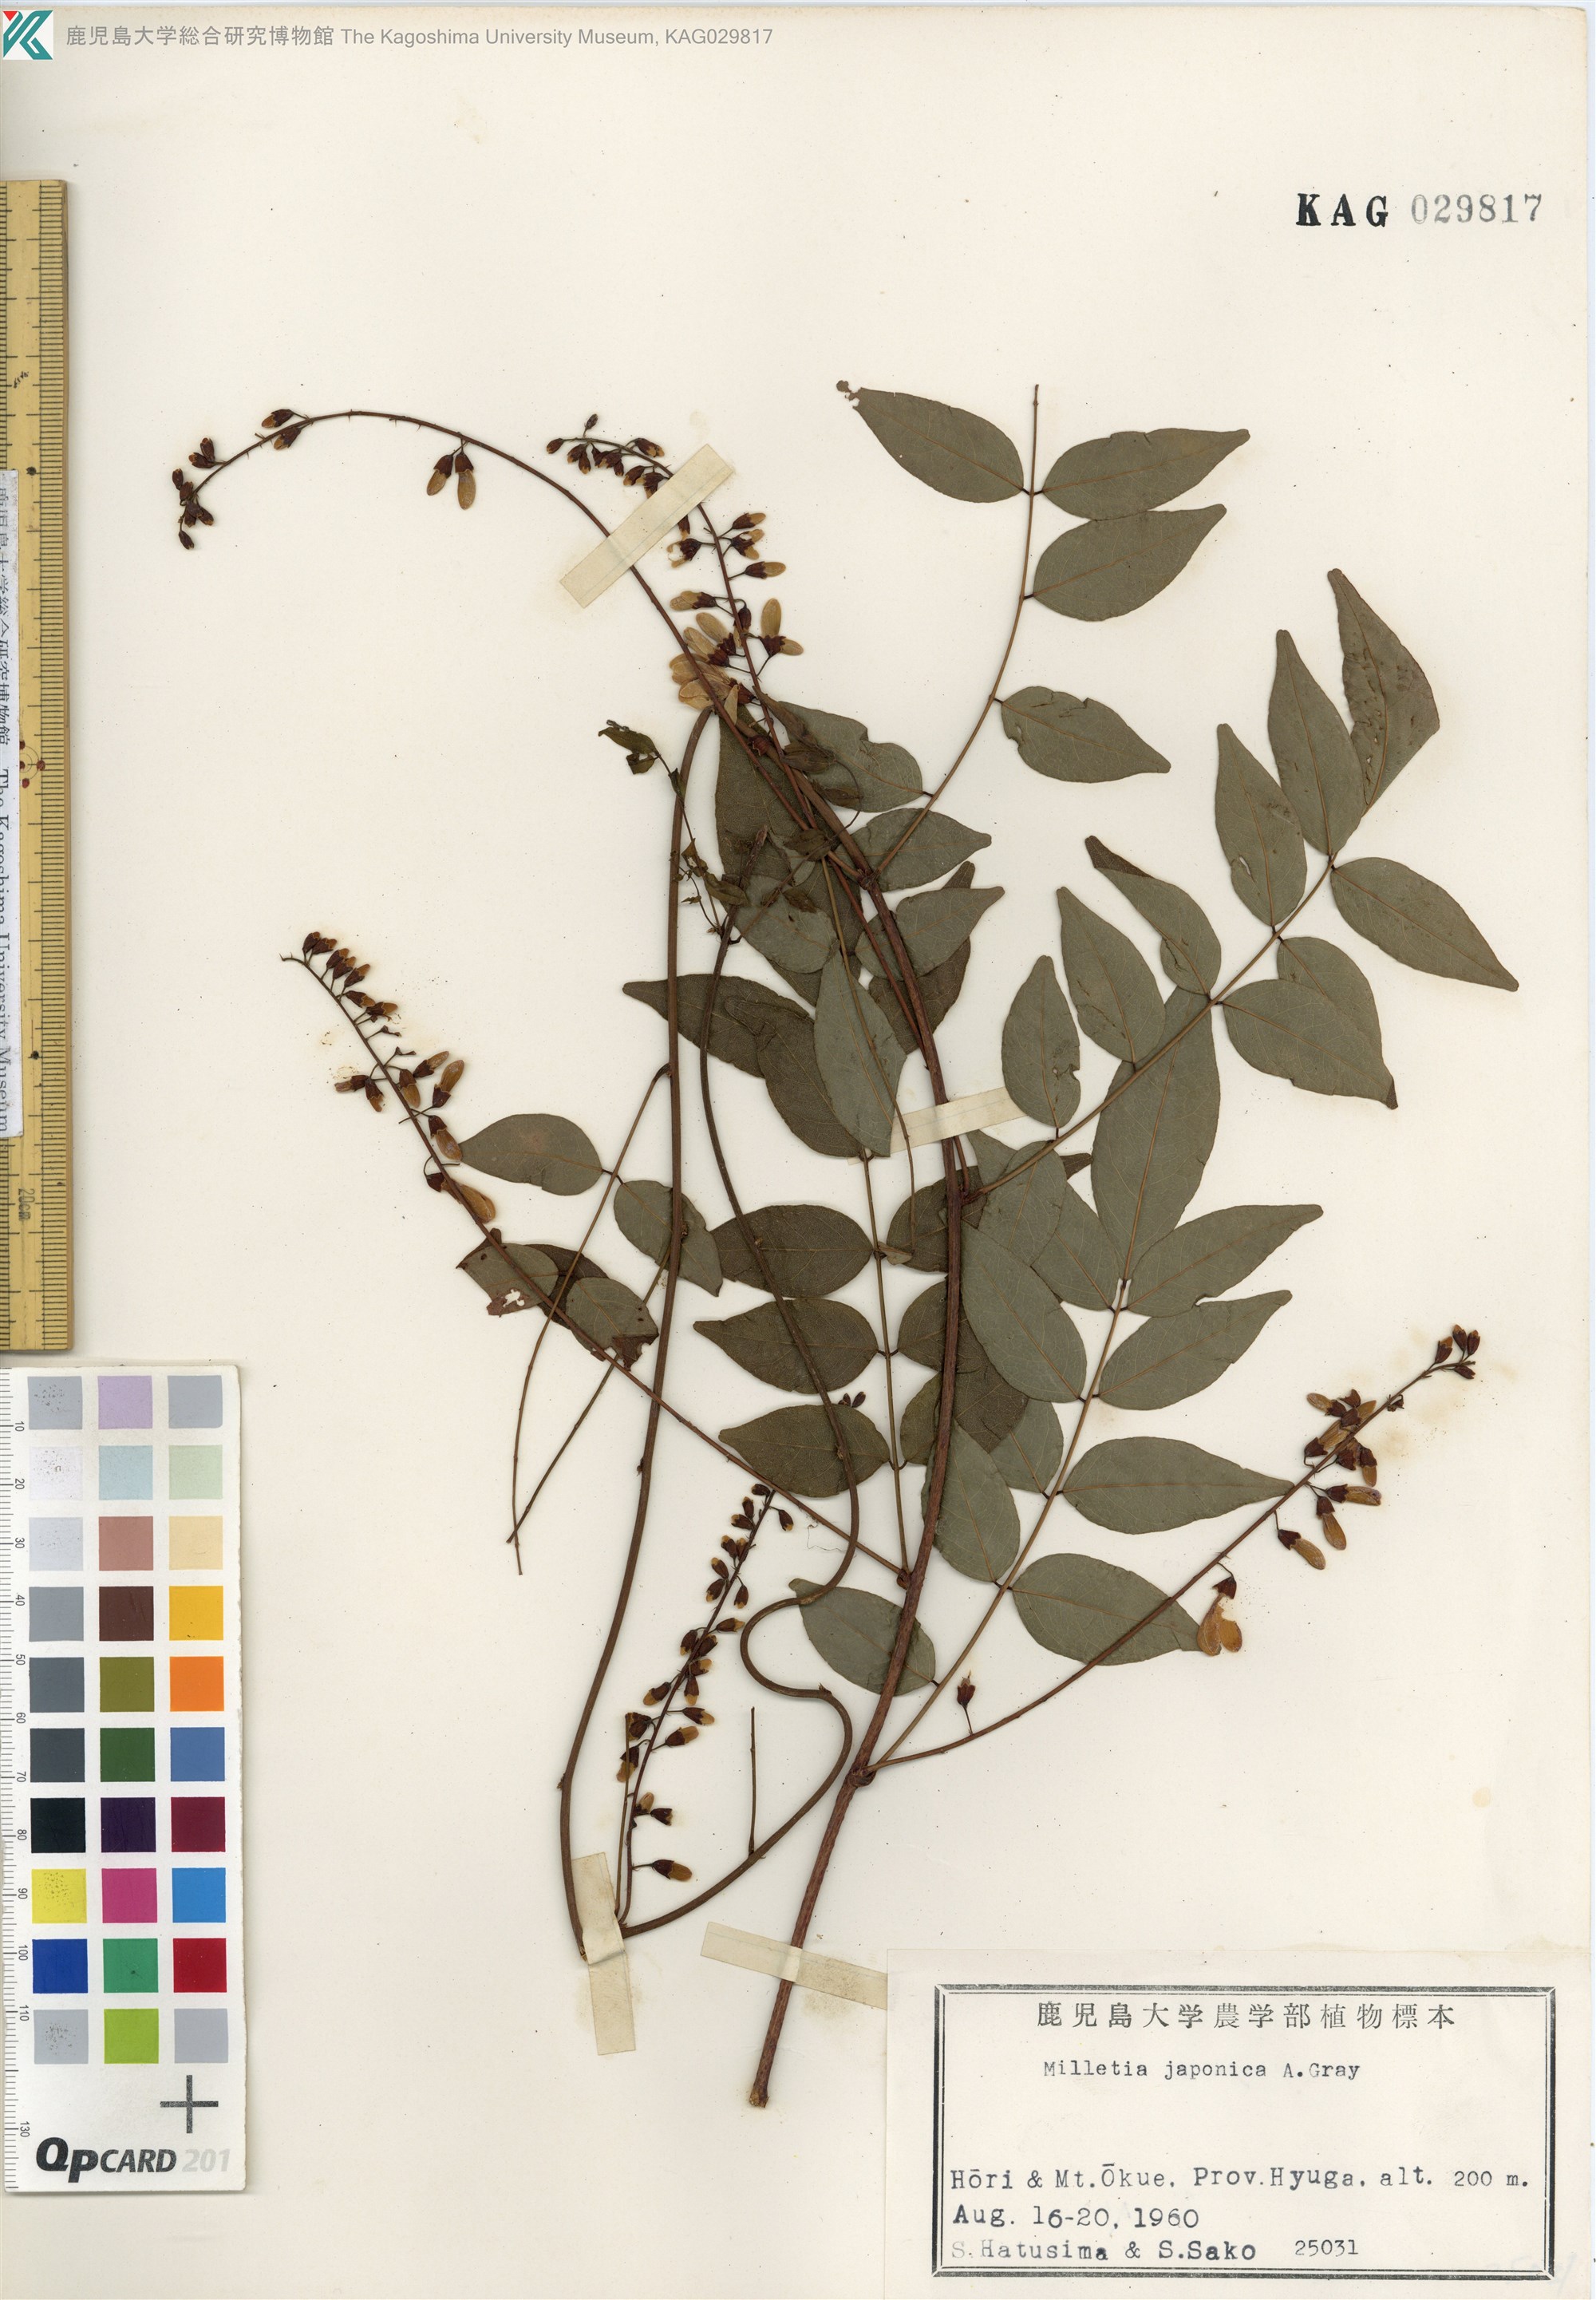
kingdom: Plantae
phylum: Tracheophyta
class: Magnoliopsida
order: Fabales
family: Fabaceae
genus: Wisteriopsis
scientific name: Wisteriopsis japonica
